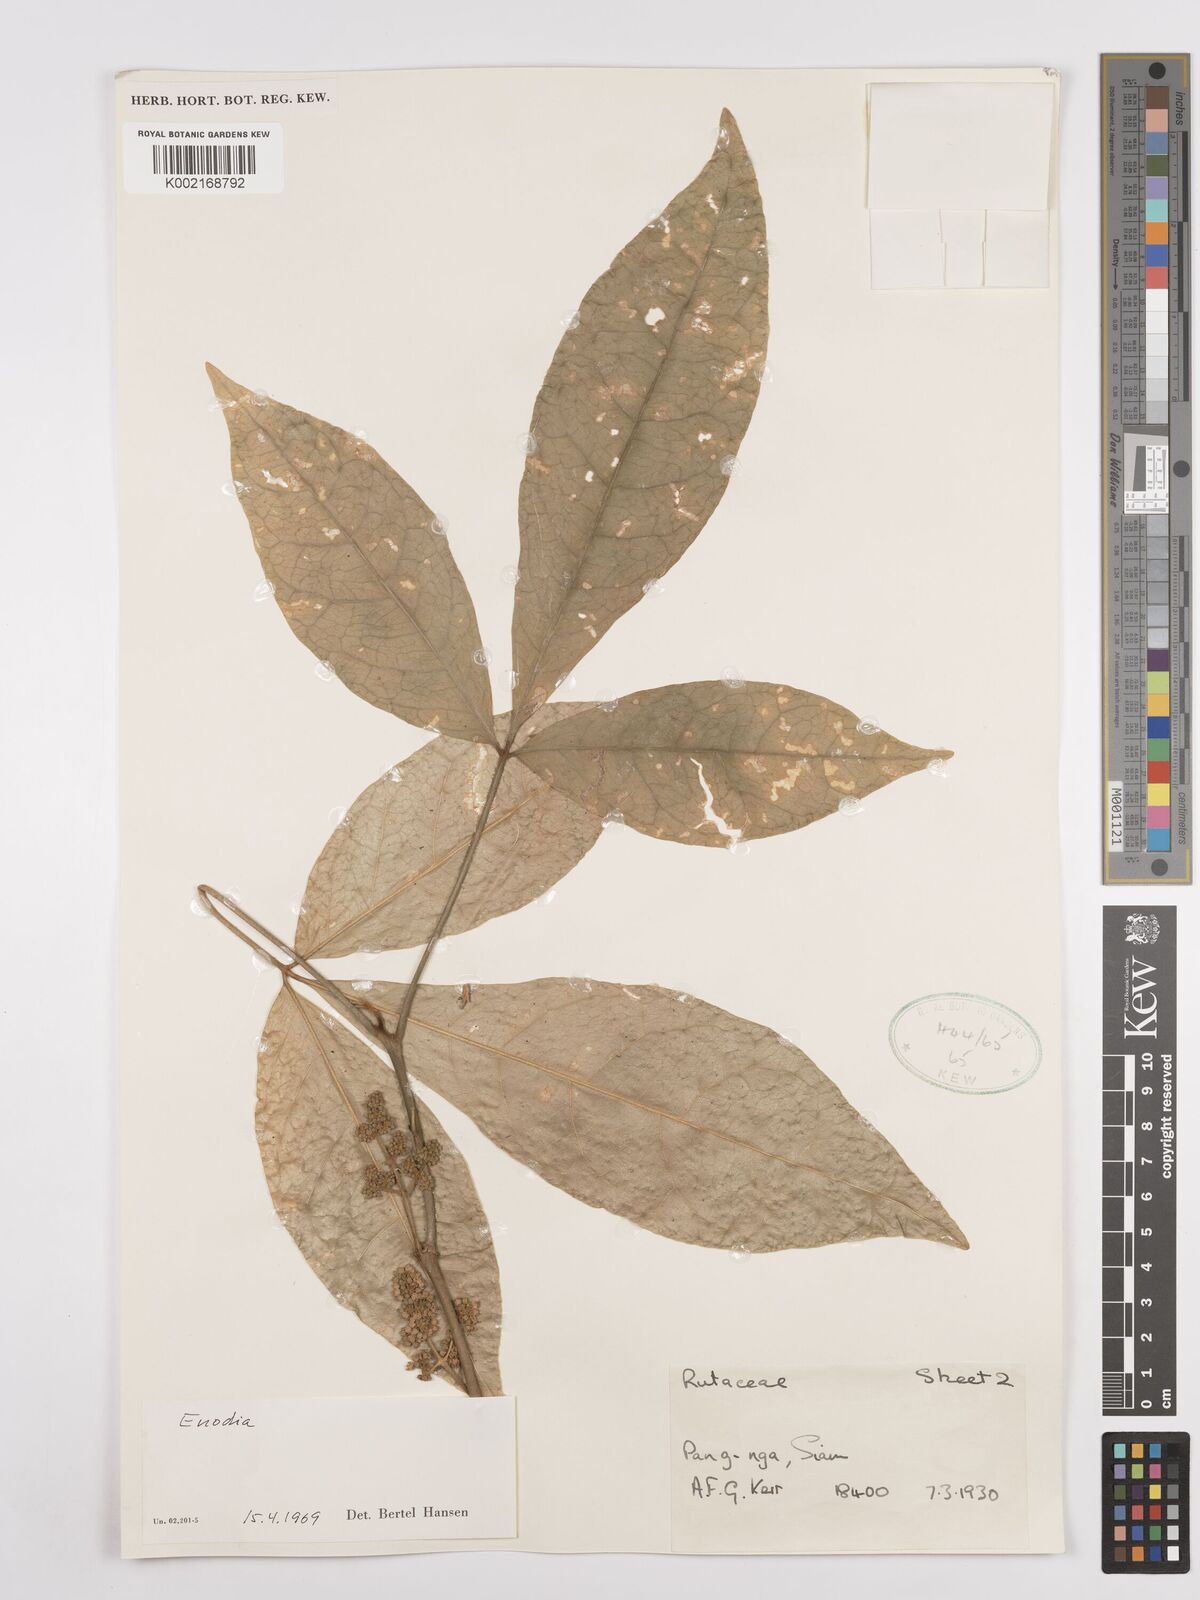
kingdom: Plantae
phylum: Tracheophyta
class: Magnoliopsida
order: Sapindales
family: Rutaceae
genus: Euodia
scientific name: Euodia
